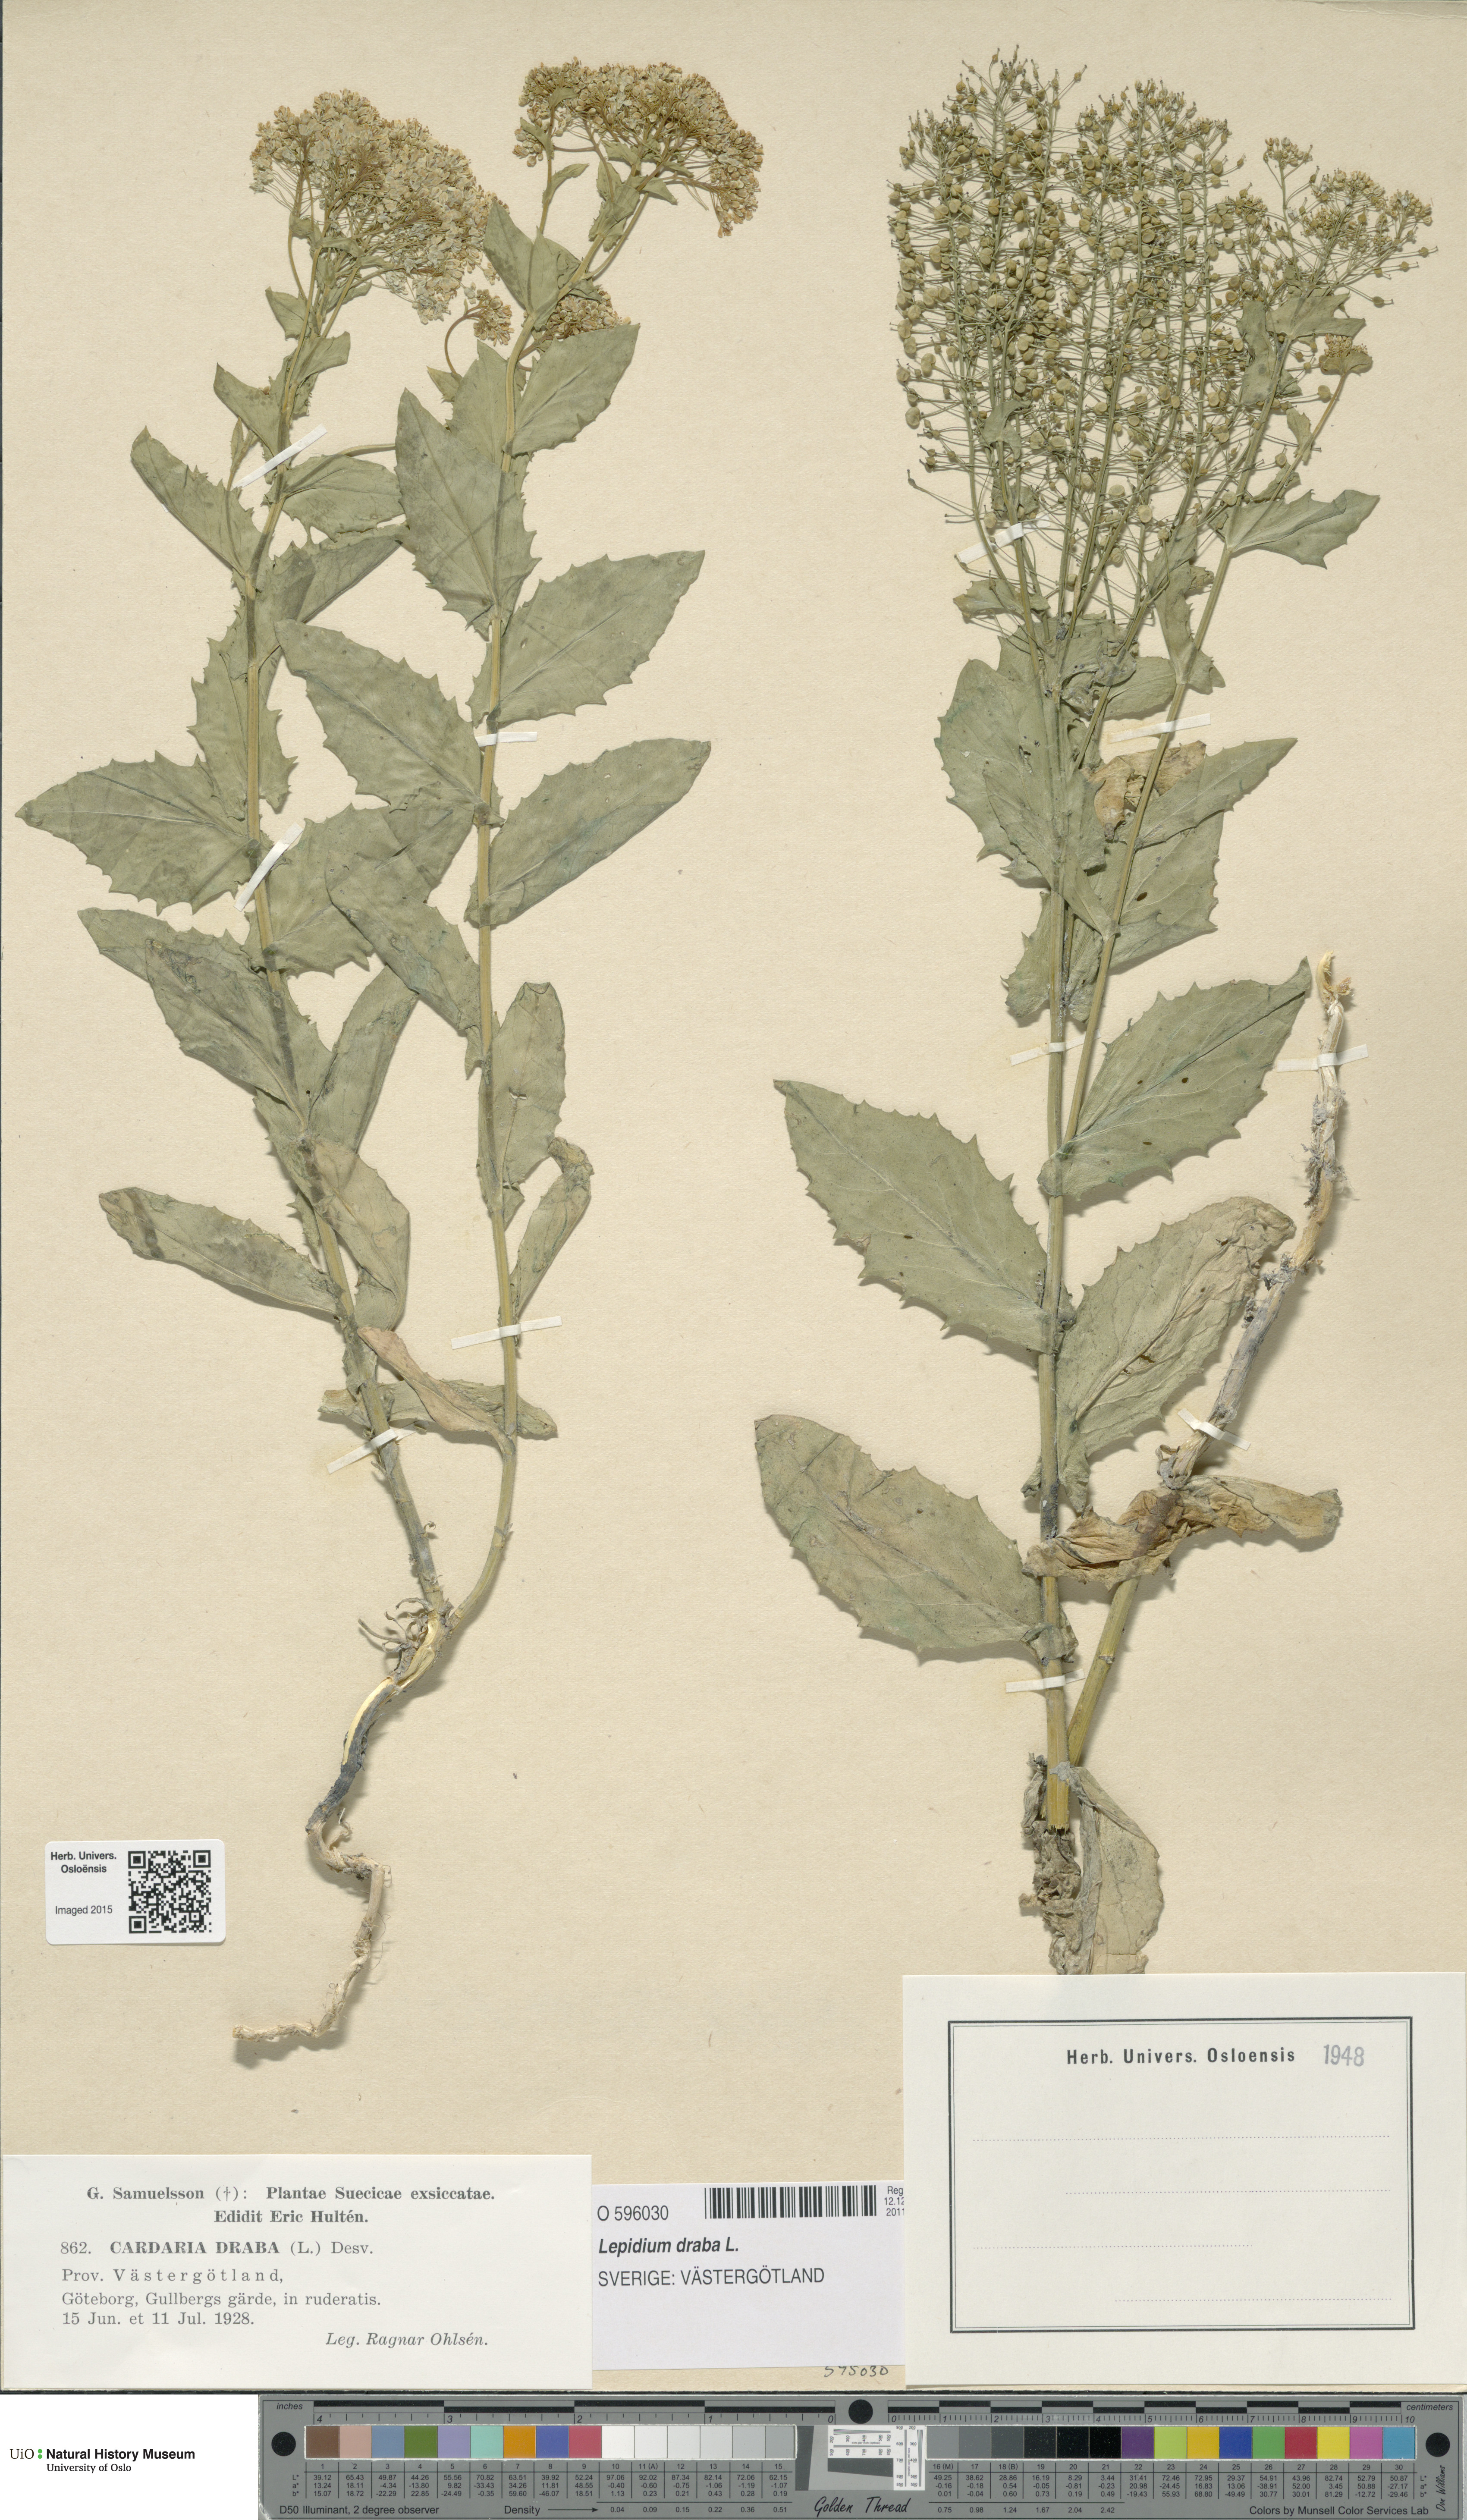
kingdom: Plantae
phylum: Tracheophyta
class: Magnoliopsida
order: Brassicales
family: Brassicaceae
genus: Lepidium
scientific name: Lepidium draba
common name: Hoary cress
